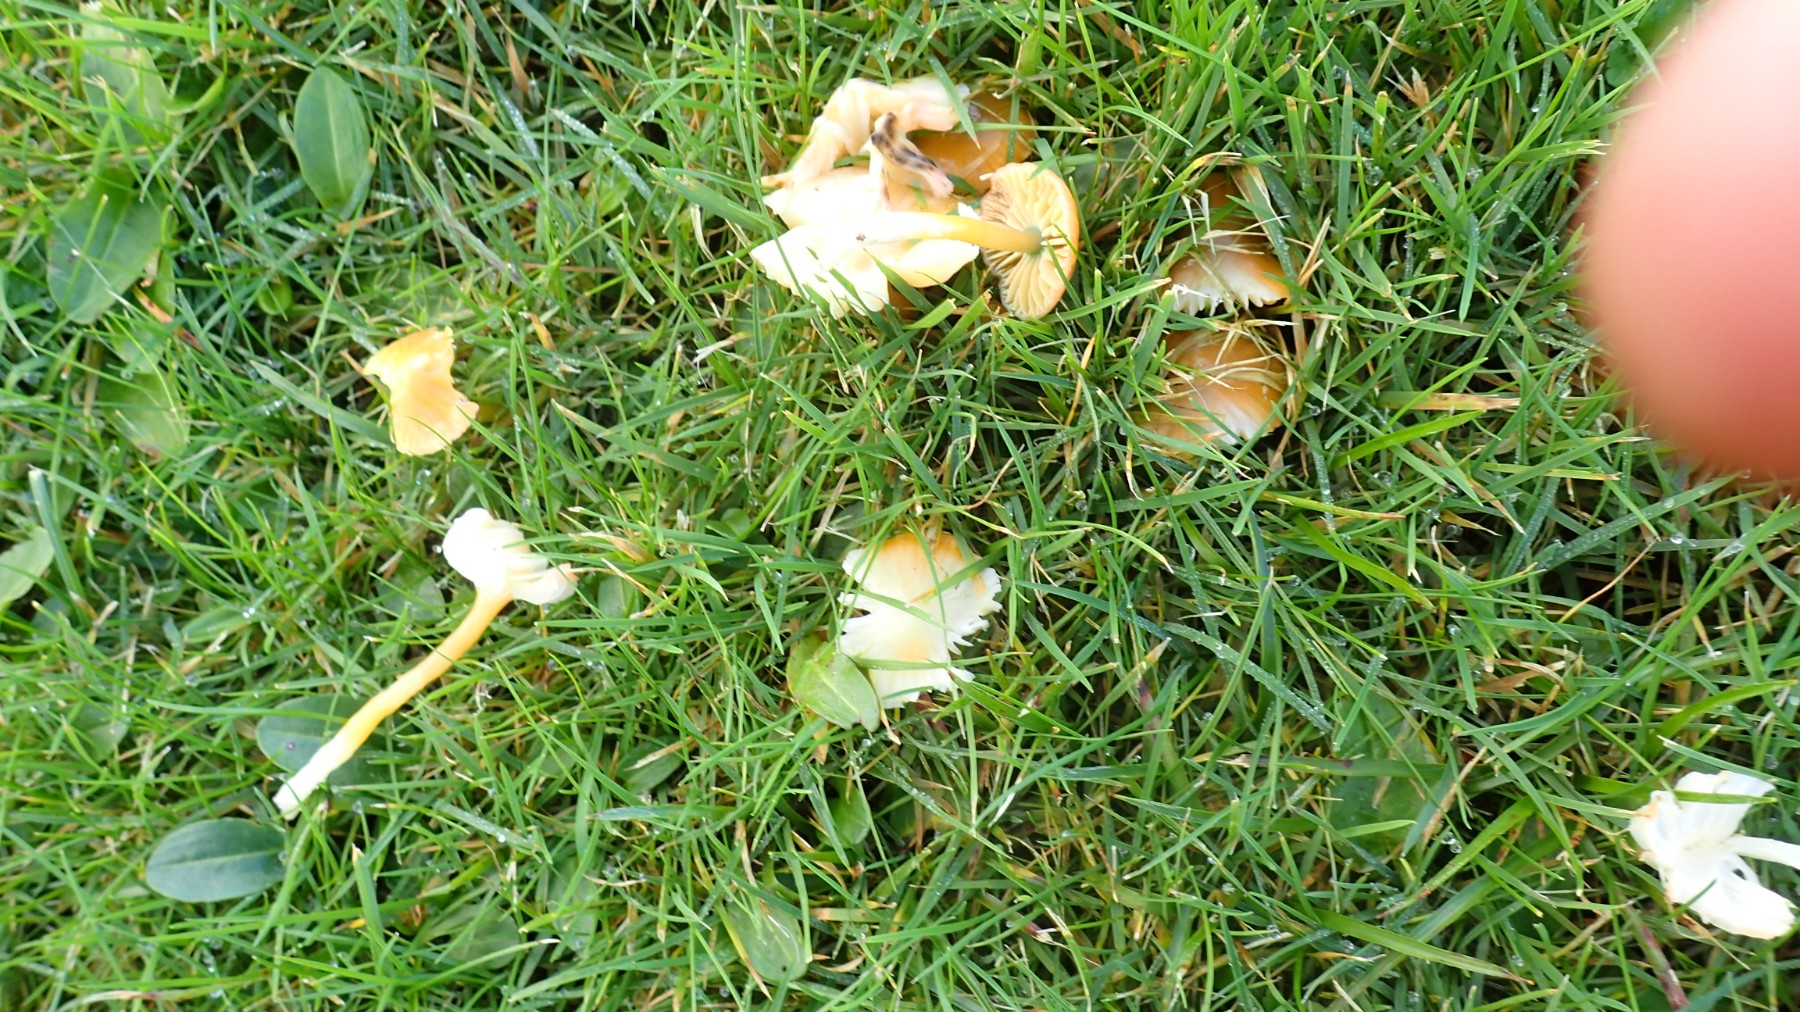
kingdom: Fungi
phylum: Basidiomycota
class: Agaricomycetes
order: Agaricales
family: Hygrophoraceae
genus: Gliophorus
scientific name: Gliophorus psittacinus
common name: papegøje-vokshat
